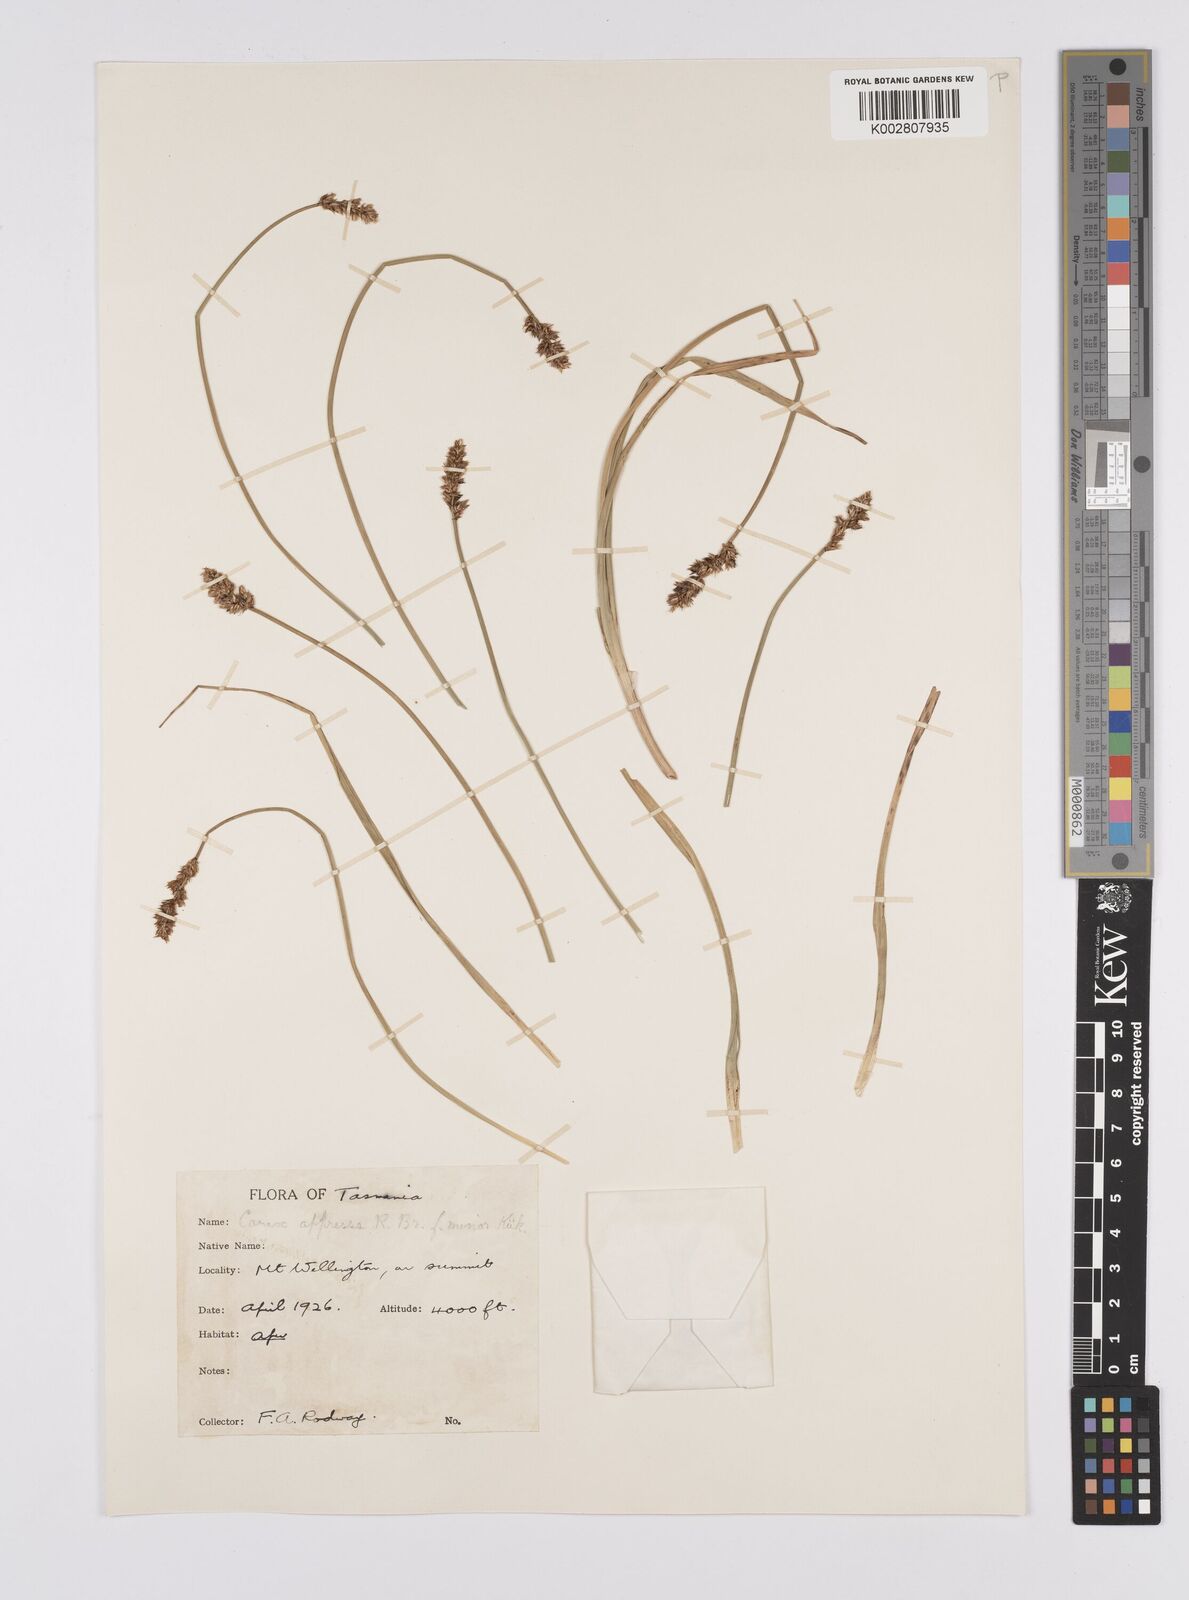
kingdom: Plantae
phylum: Tracheophyta
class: Liliopsida
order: Poales
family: Cyperaceae
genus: Carex
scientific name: Carex appressa
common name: Tussock sedge
